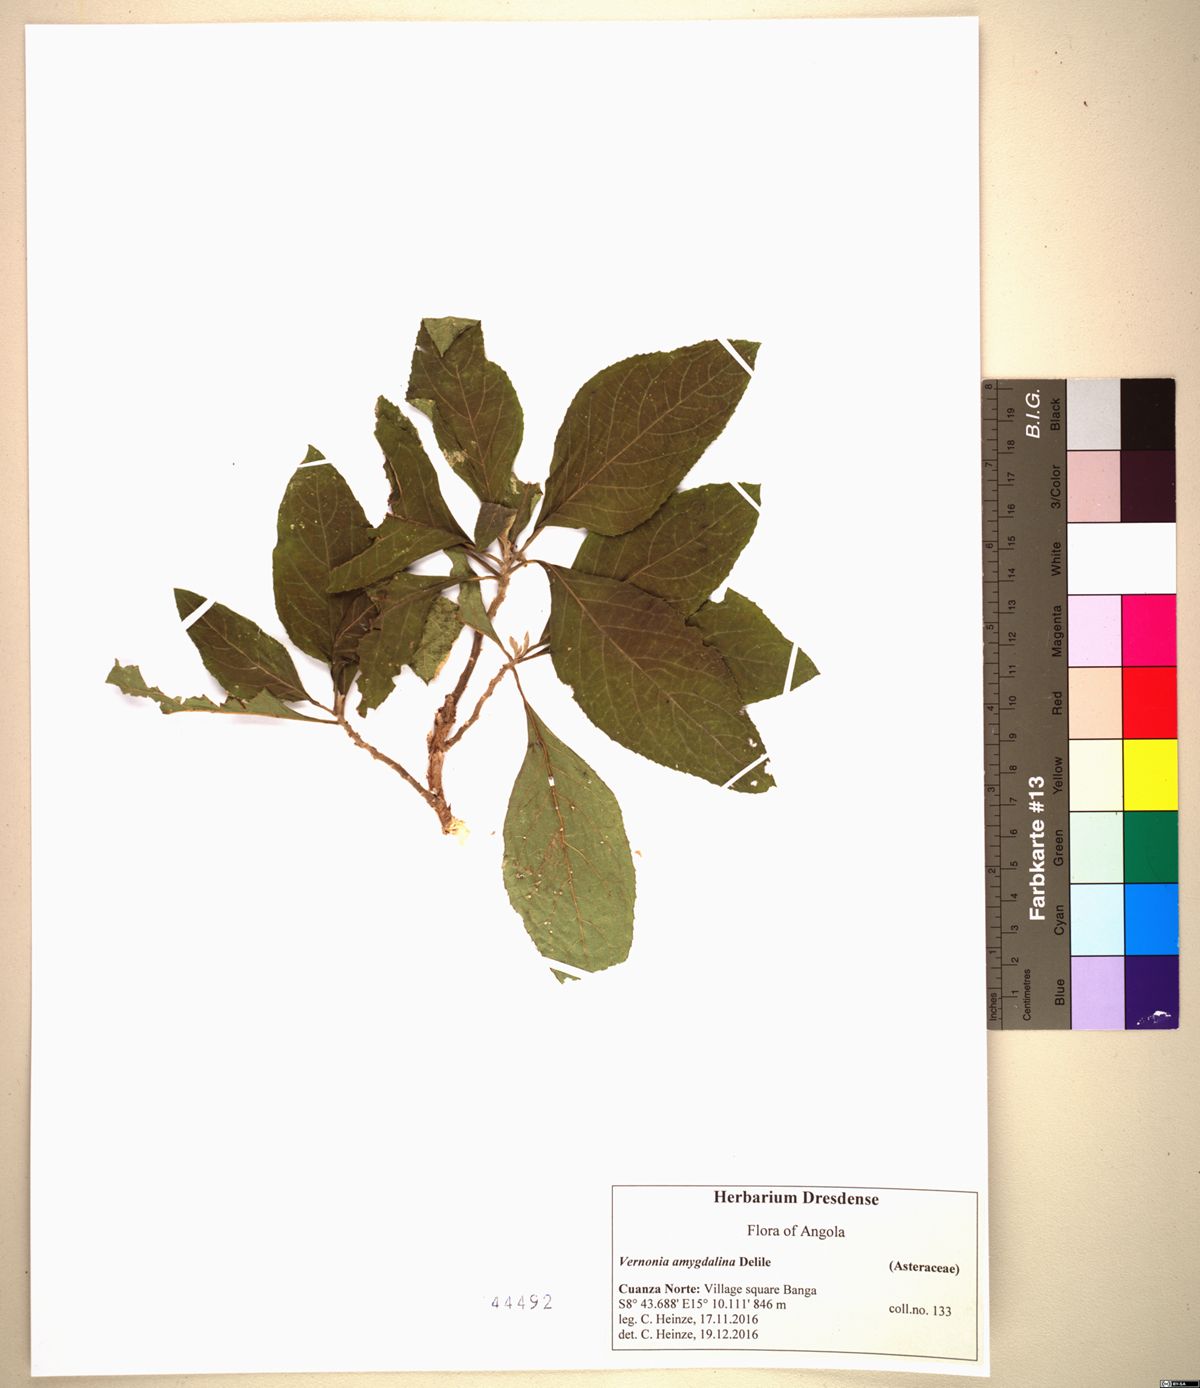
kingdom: Plantae
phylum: Tracheophyta
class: Magnoliopsida
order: Asterales
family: Asteraceae
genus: Gymnanthemum
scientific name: Gymnanthemum amygdalinum
